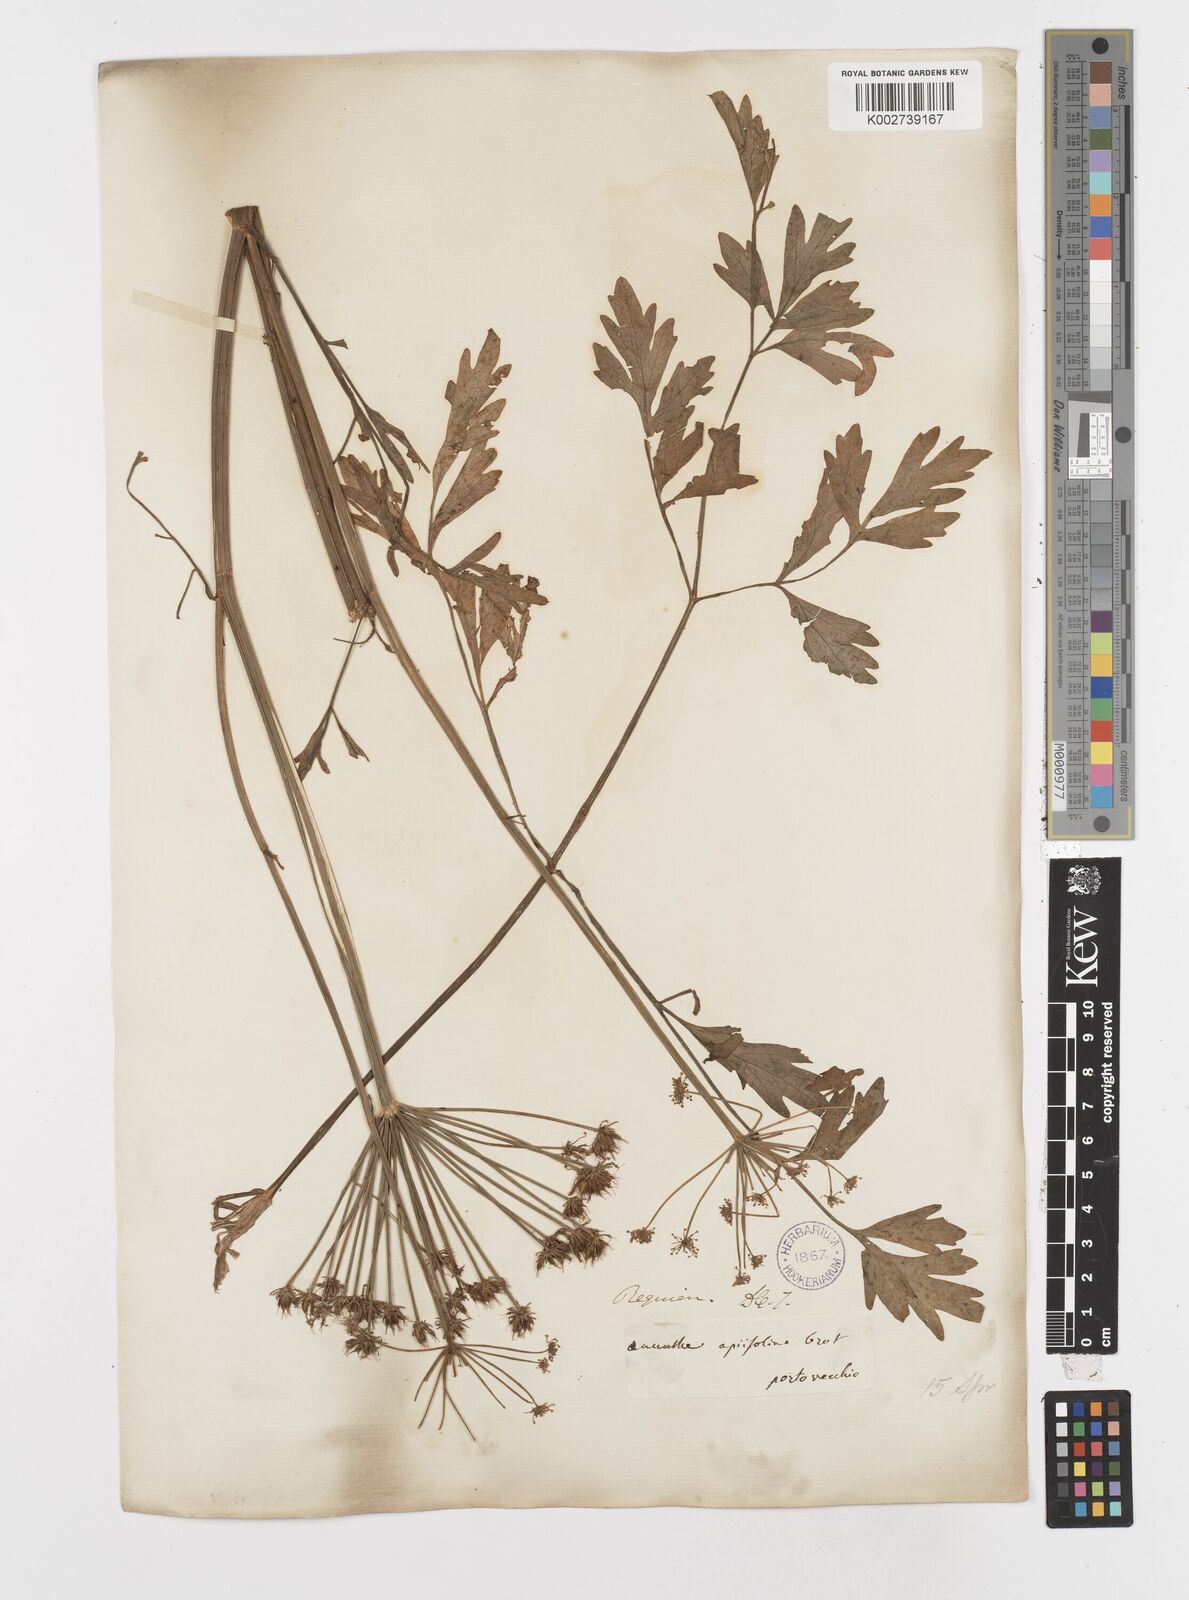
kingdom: Plantae
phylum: Tracheophyta
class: Magnoliopsida
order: Apiales
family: Apiaceae
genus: Oenanthe
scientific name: Oenanthe crocata
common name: Hemlock water-dropwort
